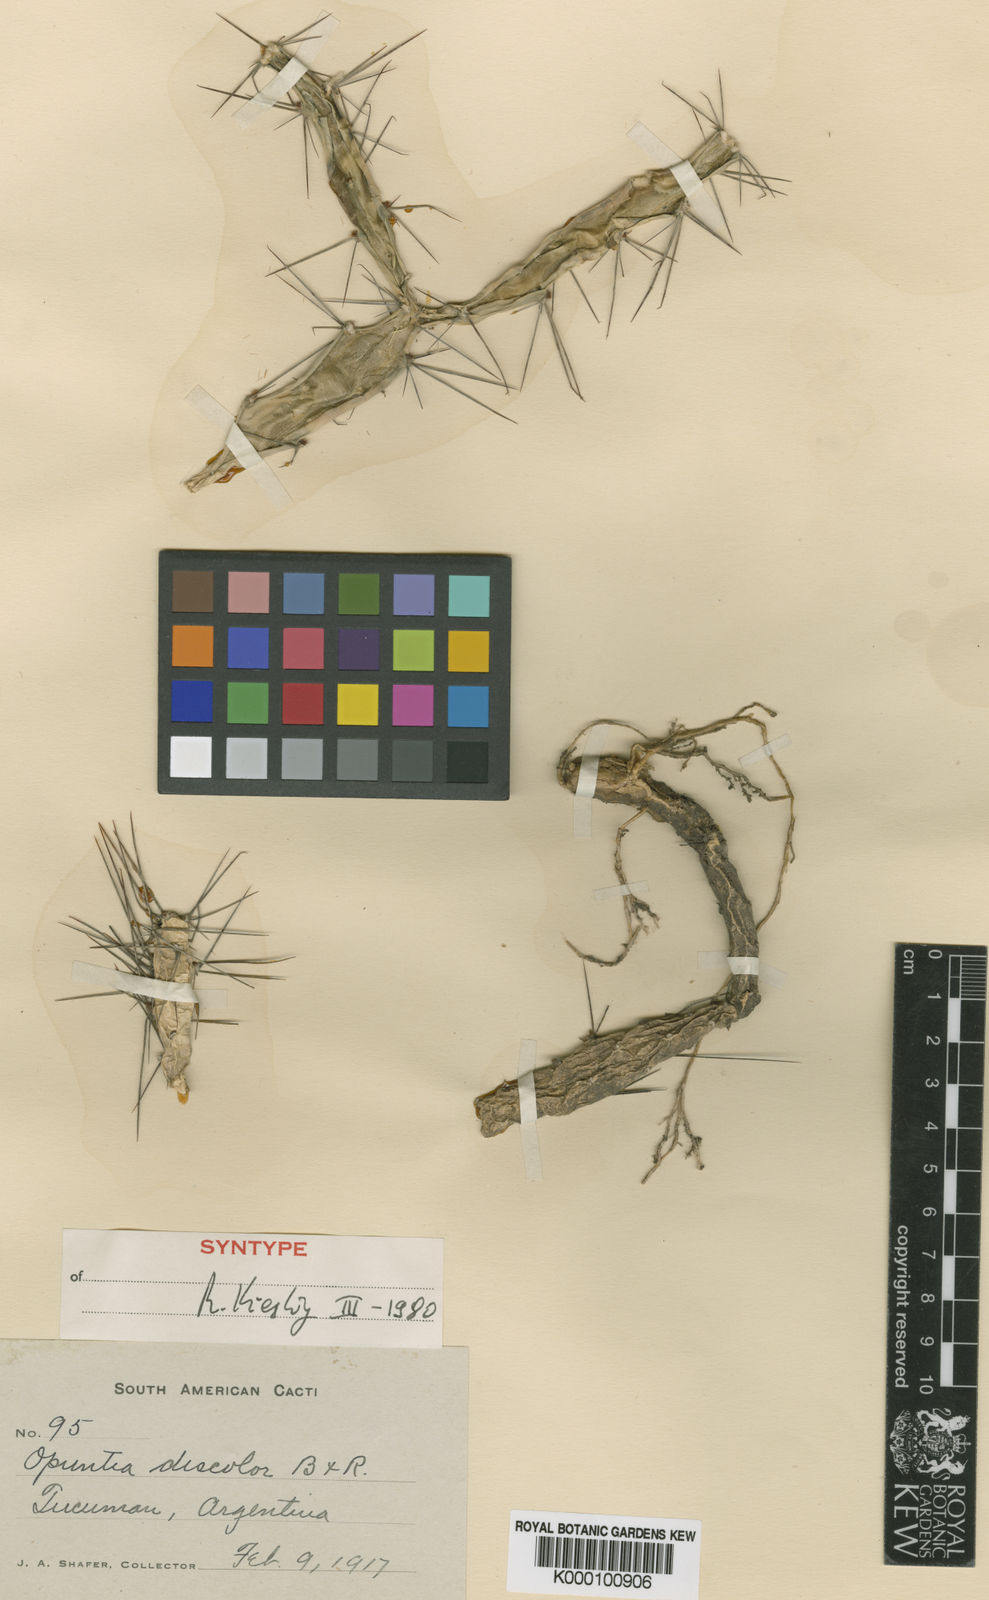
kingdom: Plantae
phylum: Tracheophyta
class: Magnoliopsida
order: Caryophyllales
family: Cactaceae
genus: Opuntia
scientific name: Opuntia discolor
